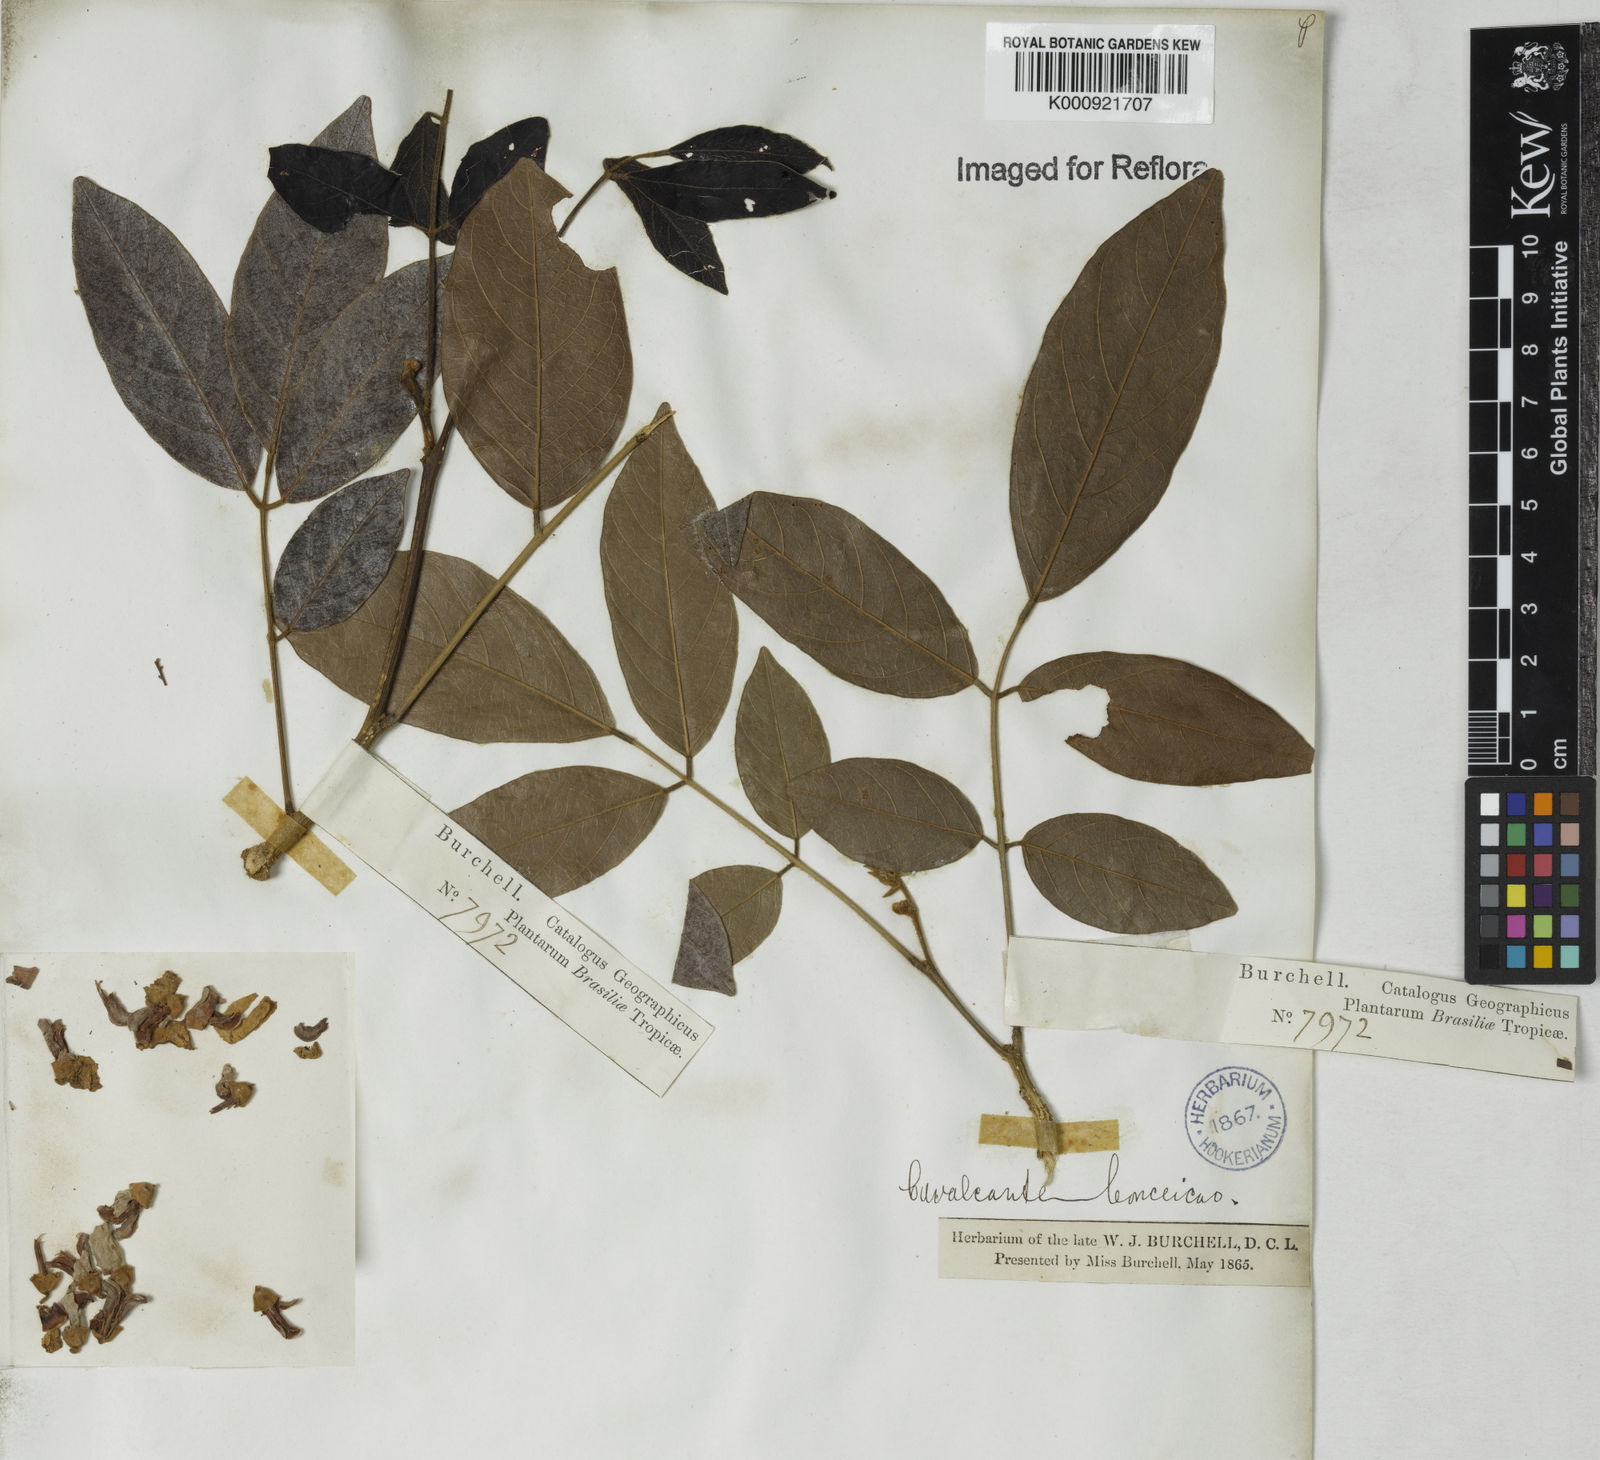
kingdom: Plantae
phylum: Tracheophyta
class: Magnoliopsida
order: Fabales
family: Fabaceae
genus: Lonchocarpus
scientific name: Lonchocarpus
